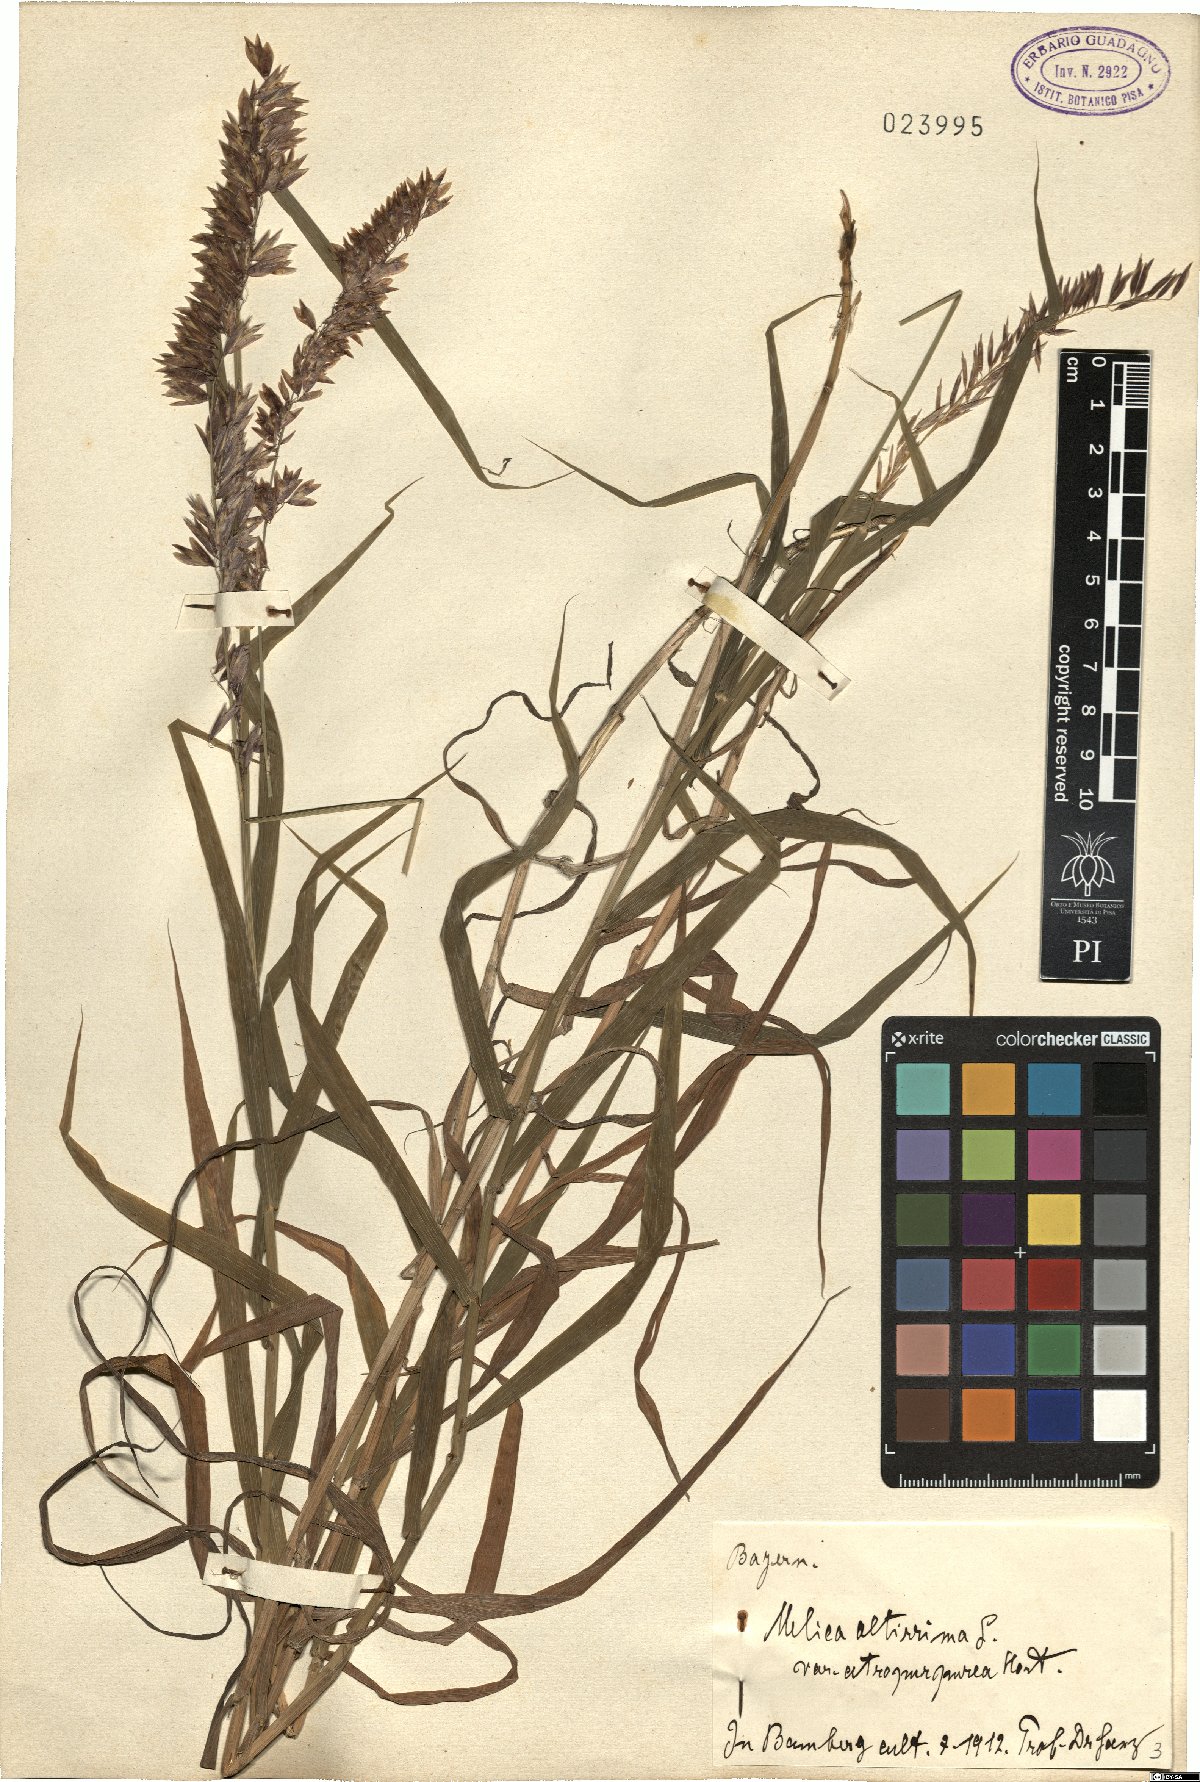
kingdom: Plantae
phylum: Tracheophyta
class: Liliopsida
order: Poales
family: Poaceae
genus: Melica
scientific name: Melica altissima
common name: Siberian melicgrass
